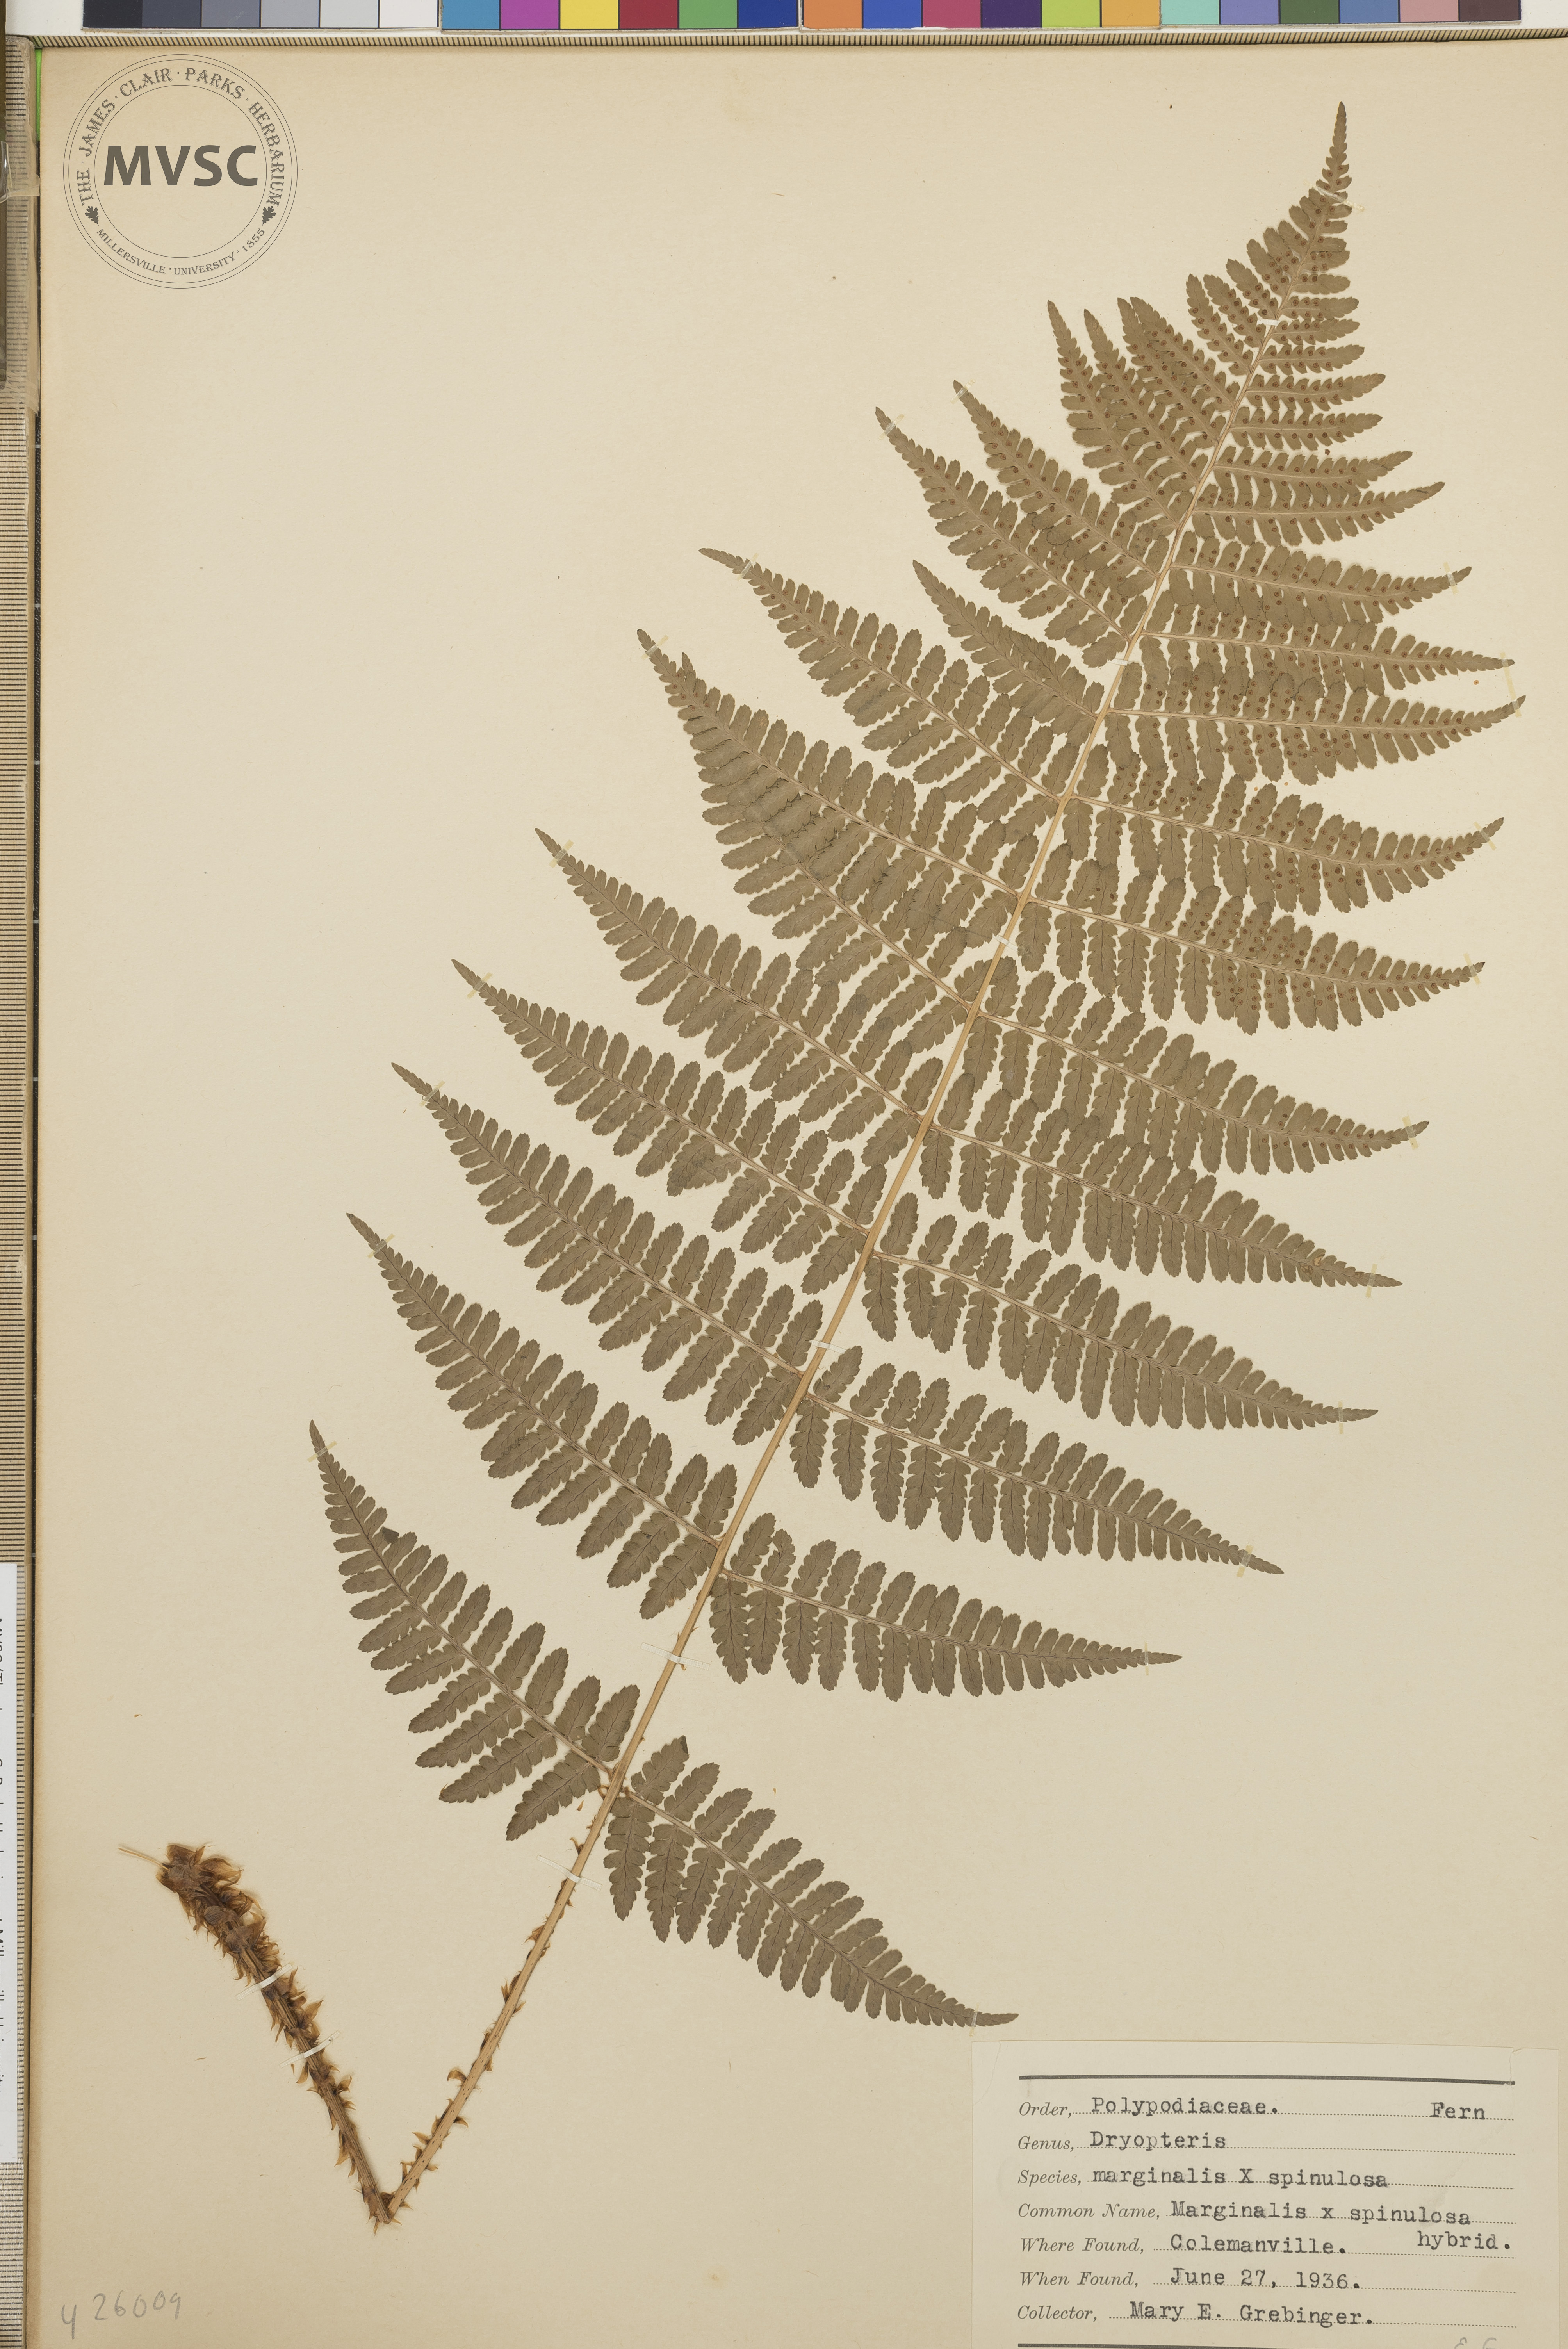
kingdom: Plantae
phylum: Tracheophyta
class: Polypodiopsida
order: Polypodiales
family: Dryopteridaceae
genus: Dryopteris
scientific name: Dryopteris
